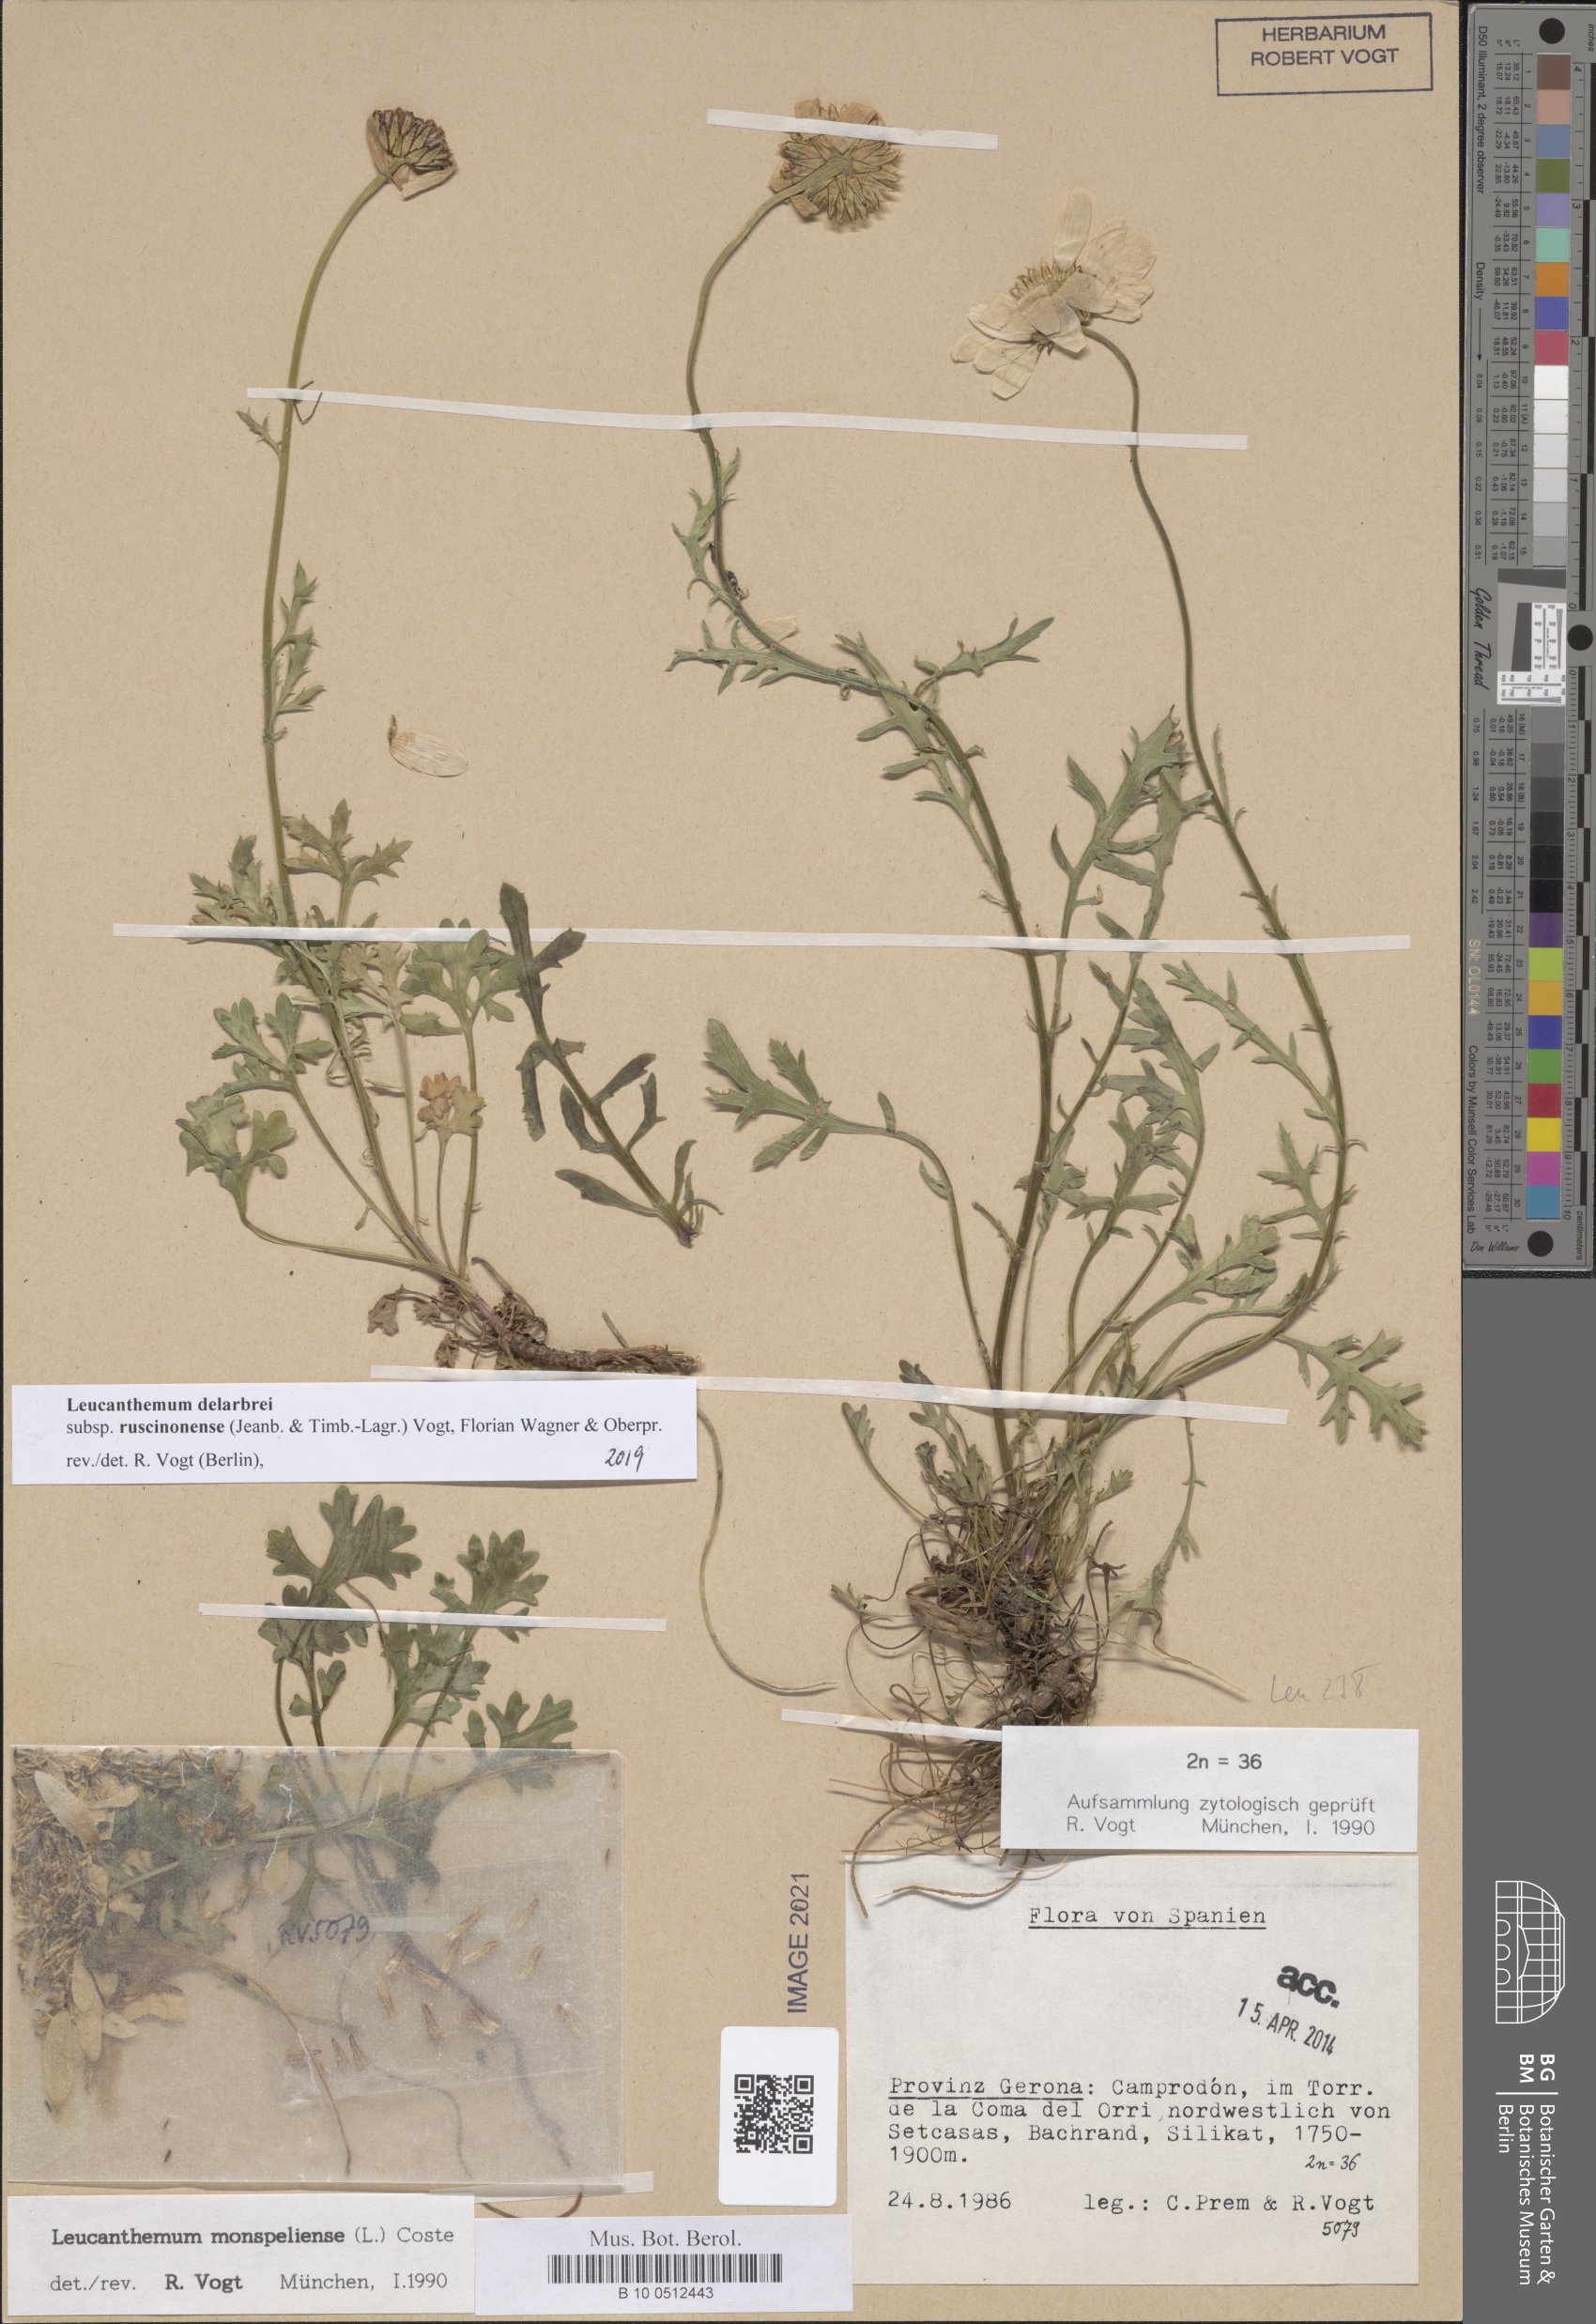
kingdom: Plantae
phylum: Tracheophyta
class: Magnoliopsida
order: Asterales
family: Asteraceae
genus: Leucanthemum
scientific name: Leucanthemum delarbrei
